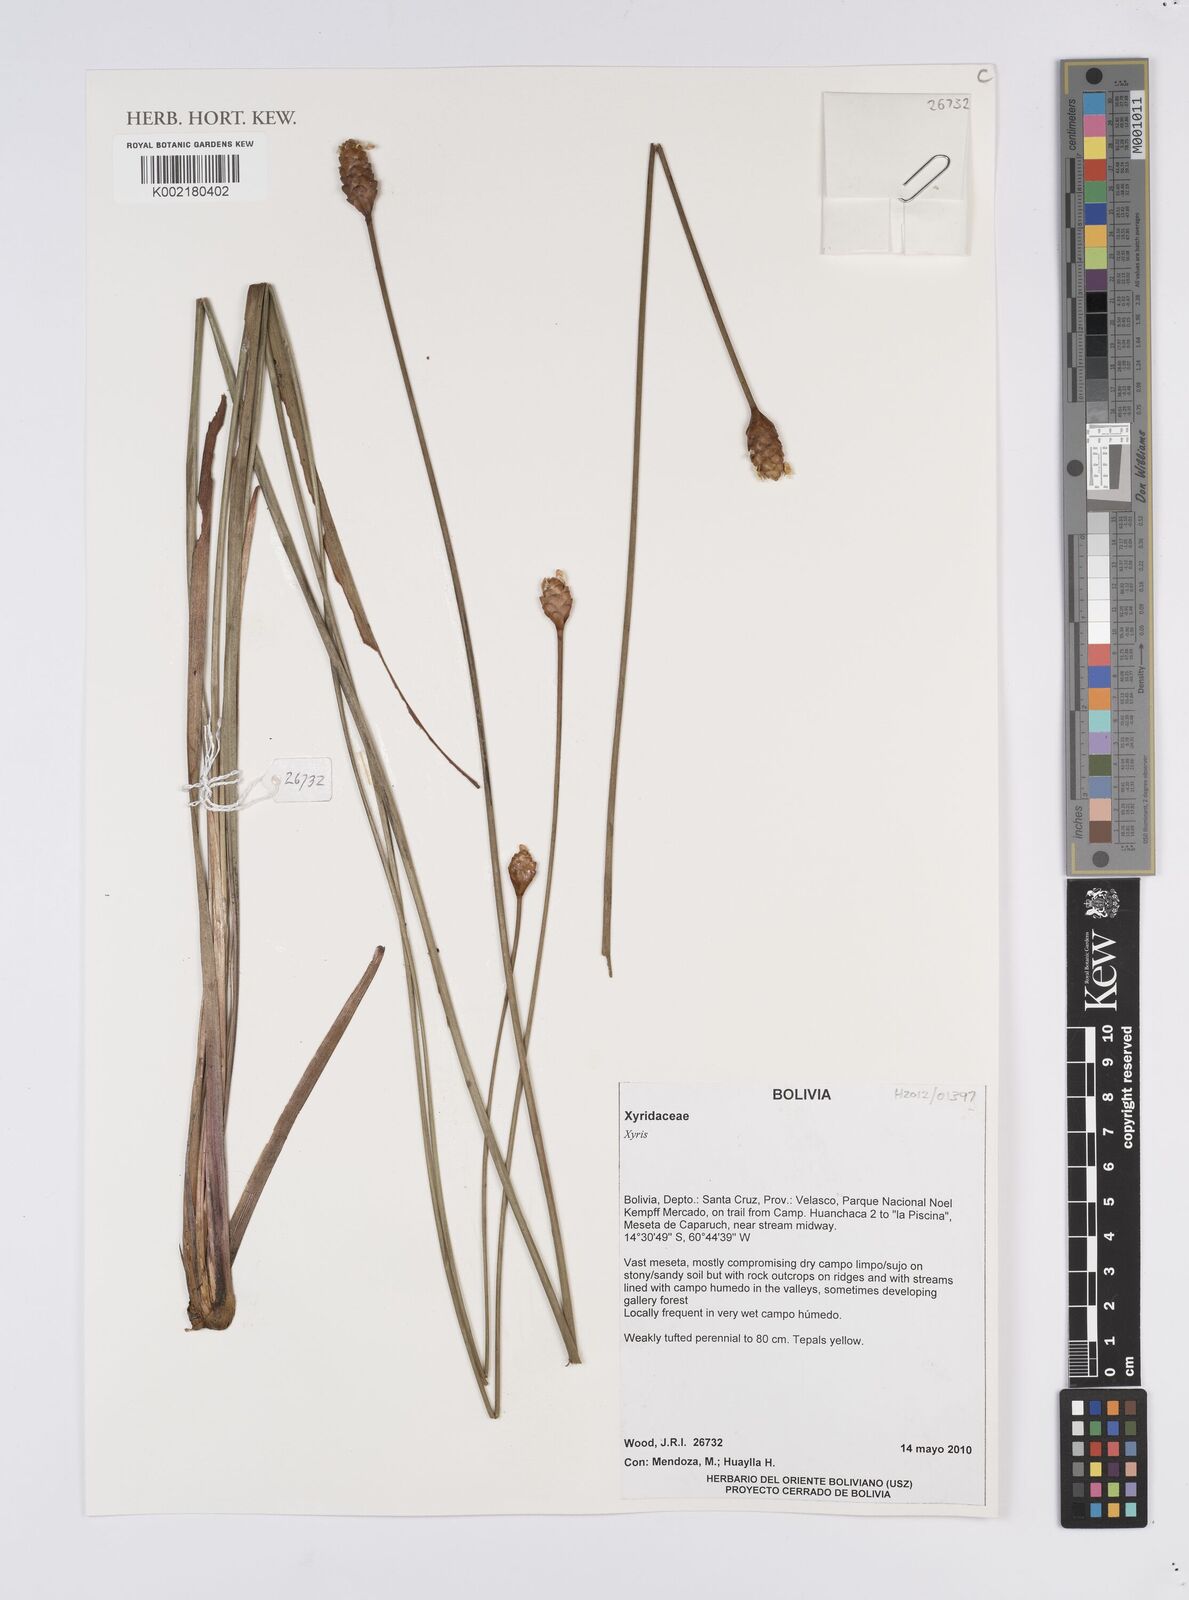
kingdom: Plantae
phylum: Tracheophyta
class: Liliopsida
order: Poales
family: Xyridaceae
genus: Xyris
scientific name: Xyris
